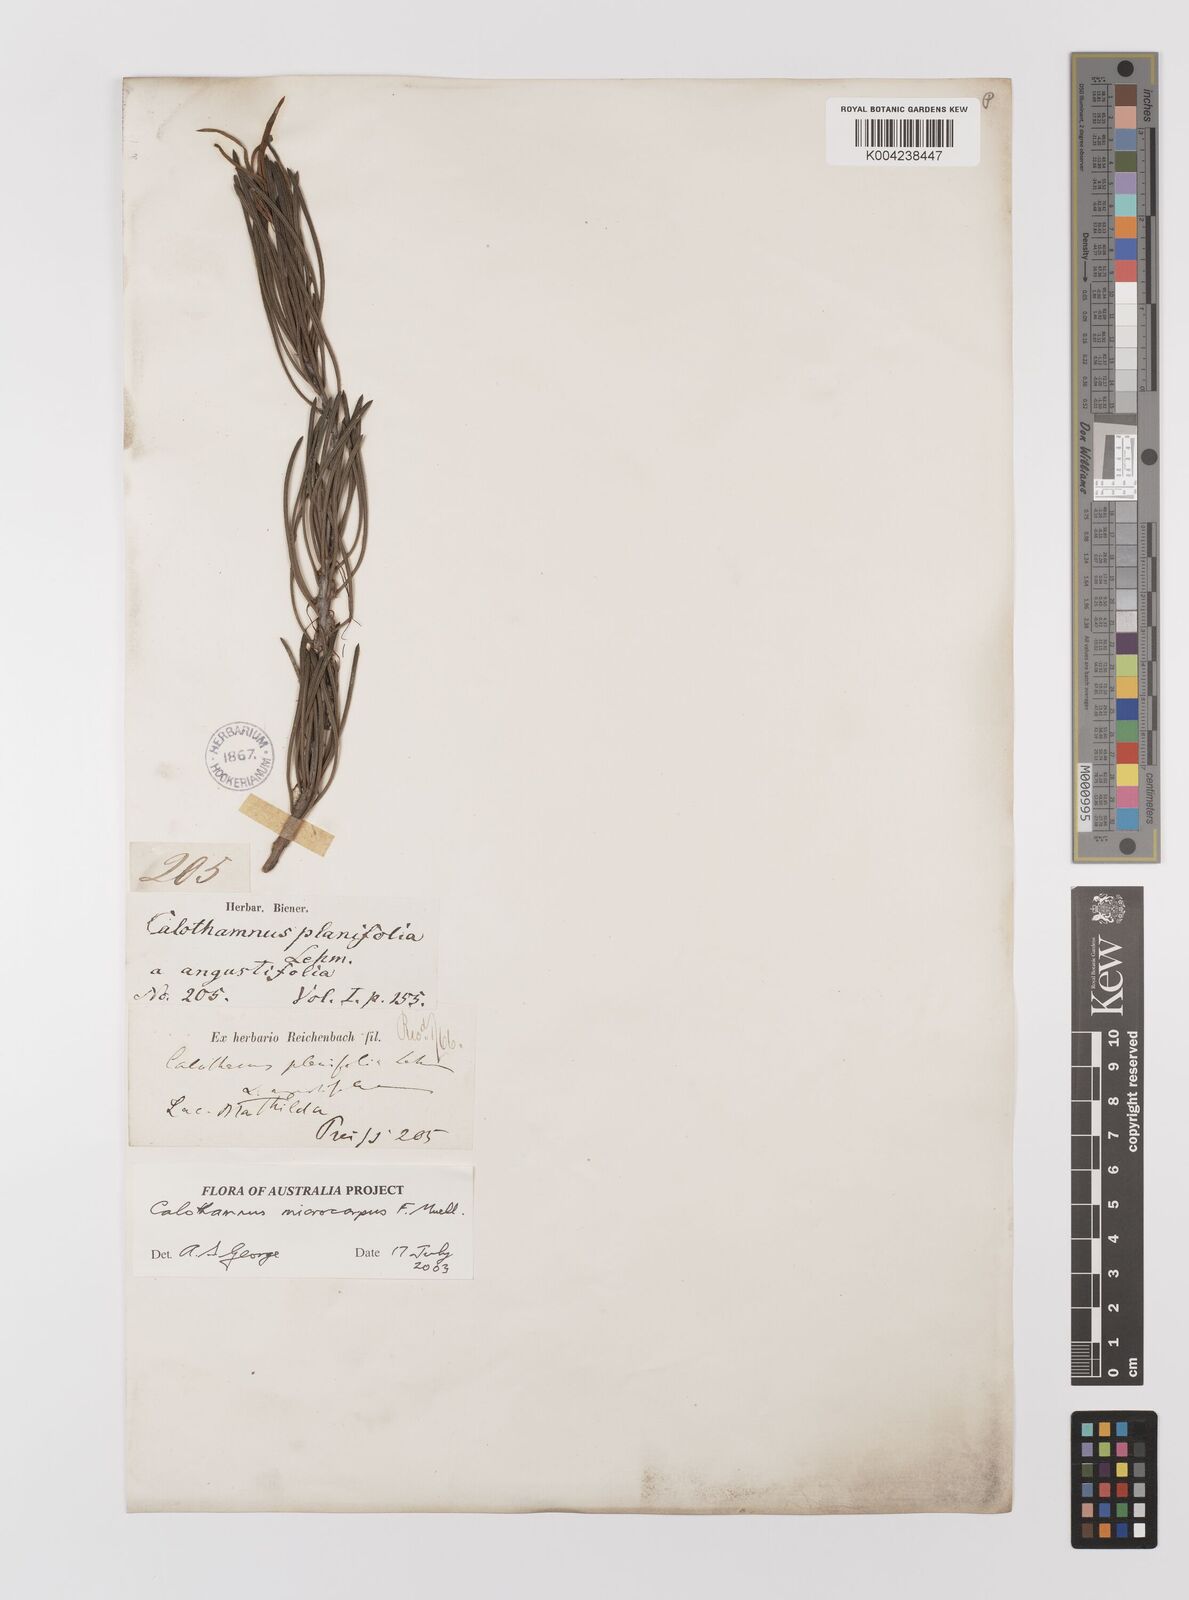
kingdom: Plantae
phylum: Tracheophyta
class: Magnoliopsida
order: Myrtales
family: Myrtaceae
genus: Melaleuca
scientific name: Melaleuca microcarpa
